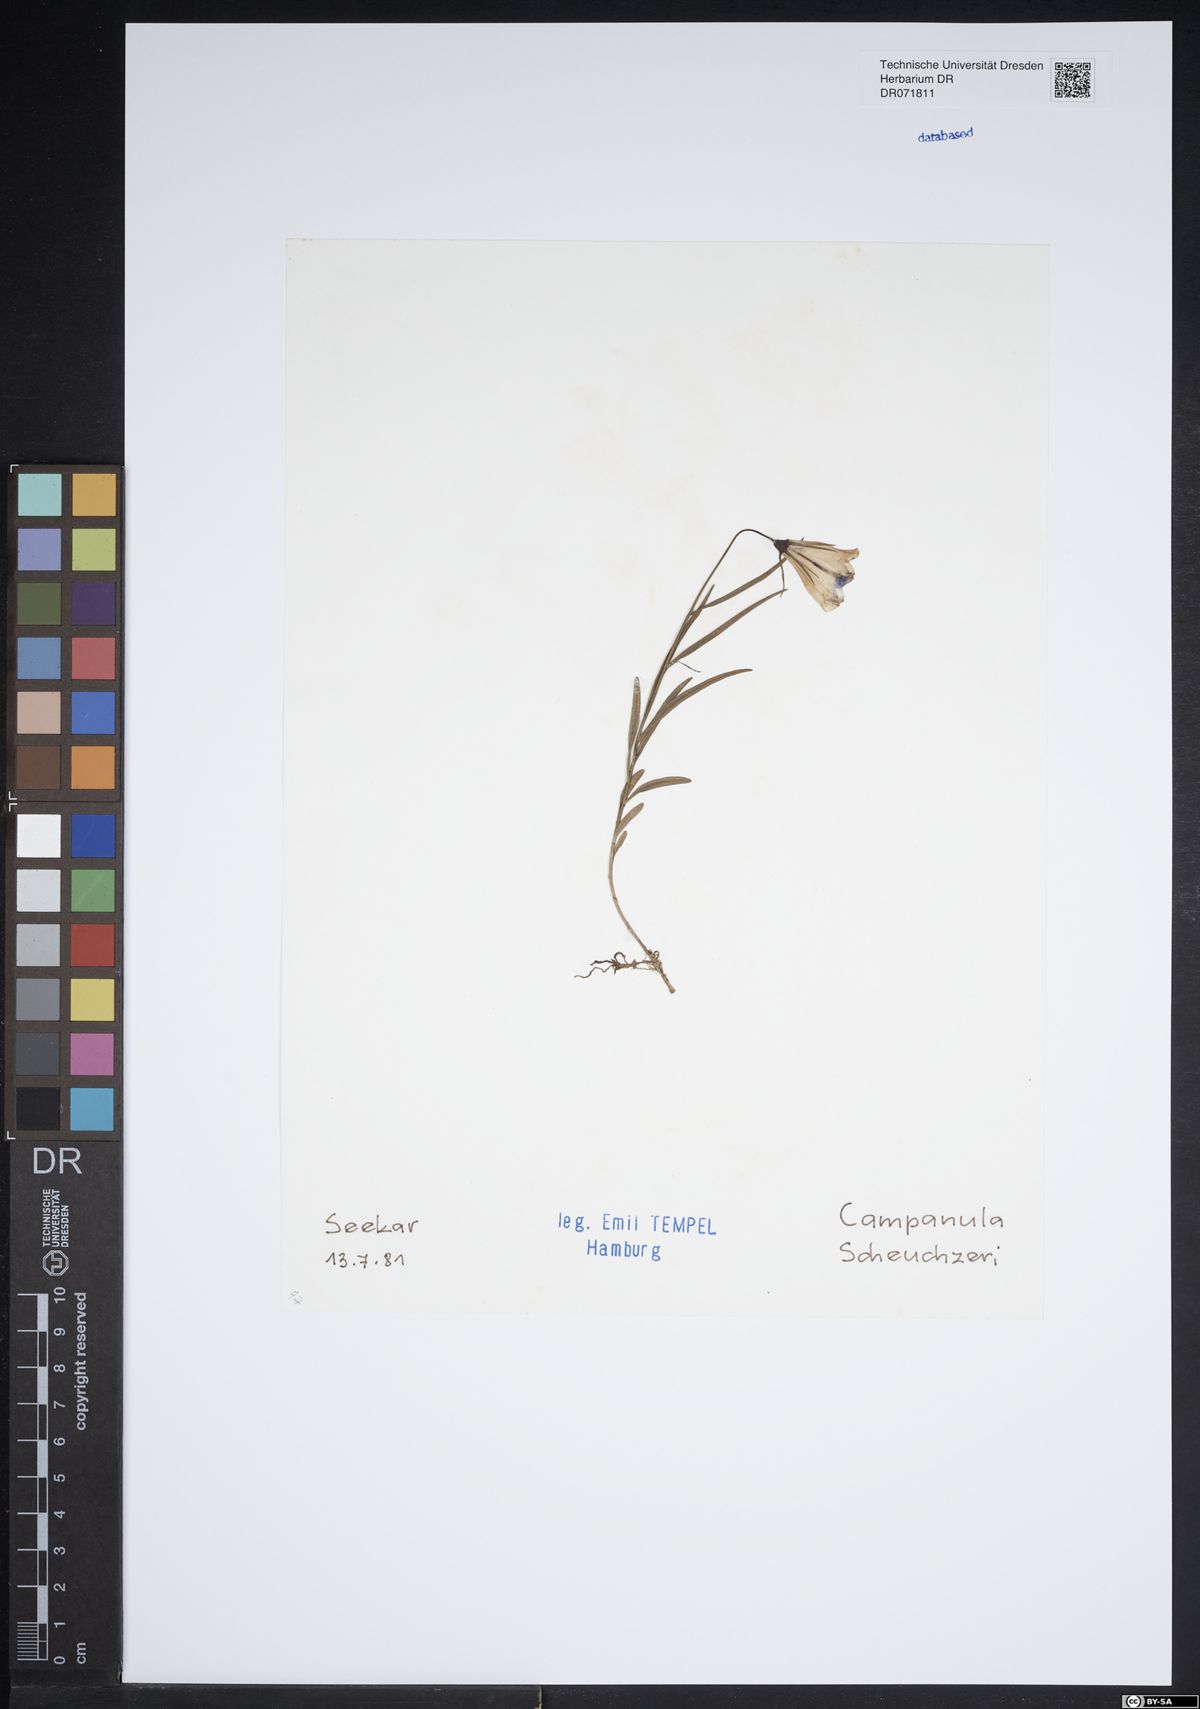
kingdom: Plantae
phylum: Tracheophyta
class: Magnoliopsida
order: Asterales
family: Campanulaceae
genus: Campanula
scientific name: Campanula scheuchzeri
